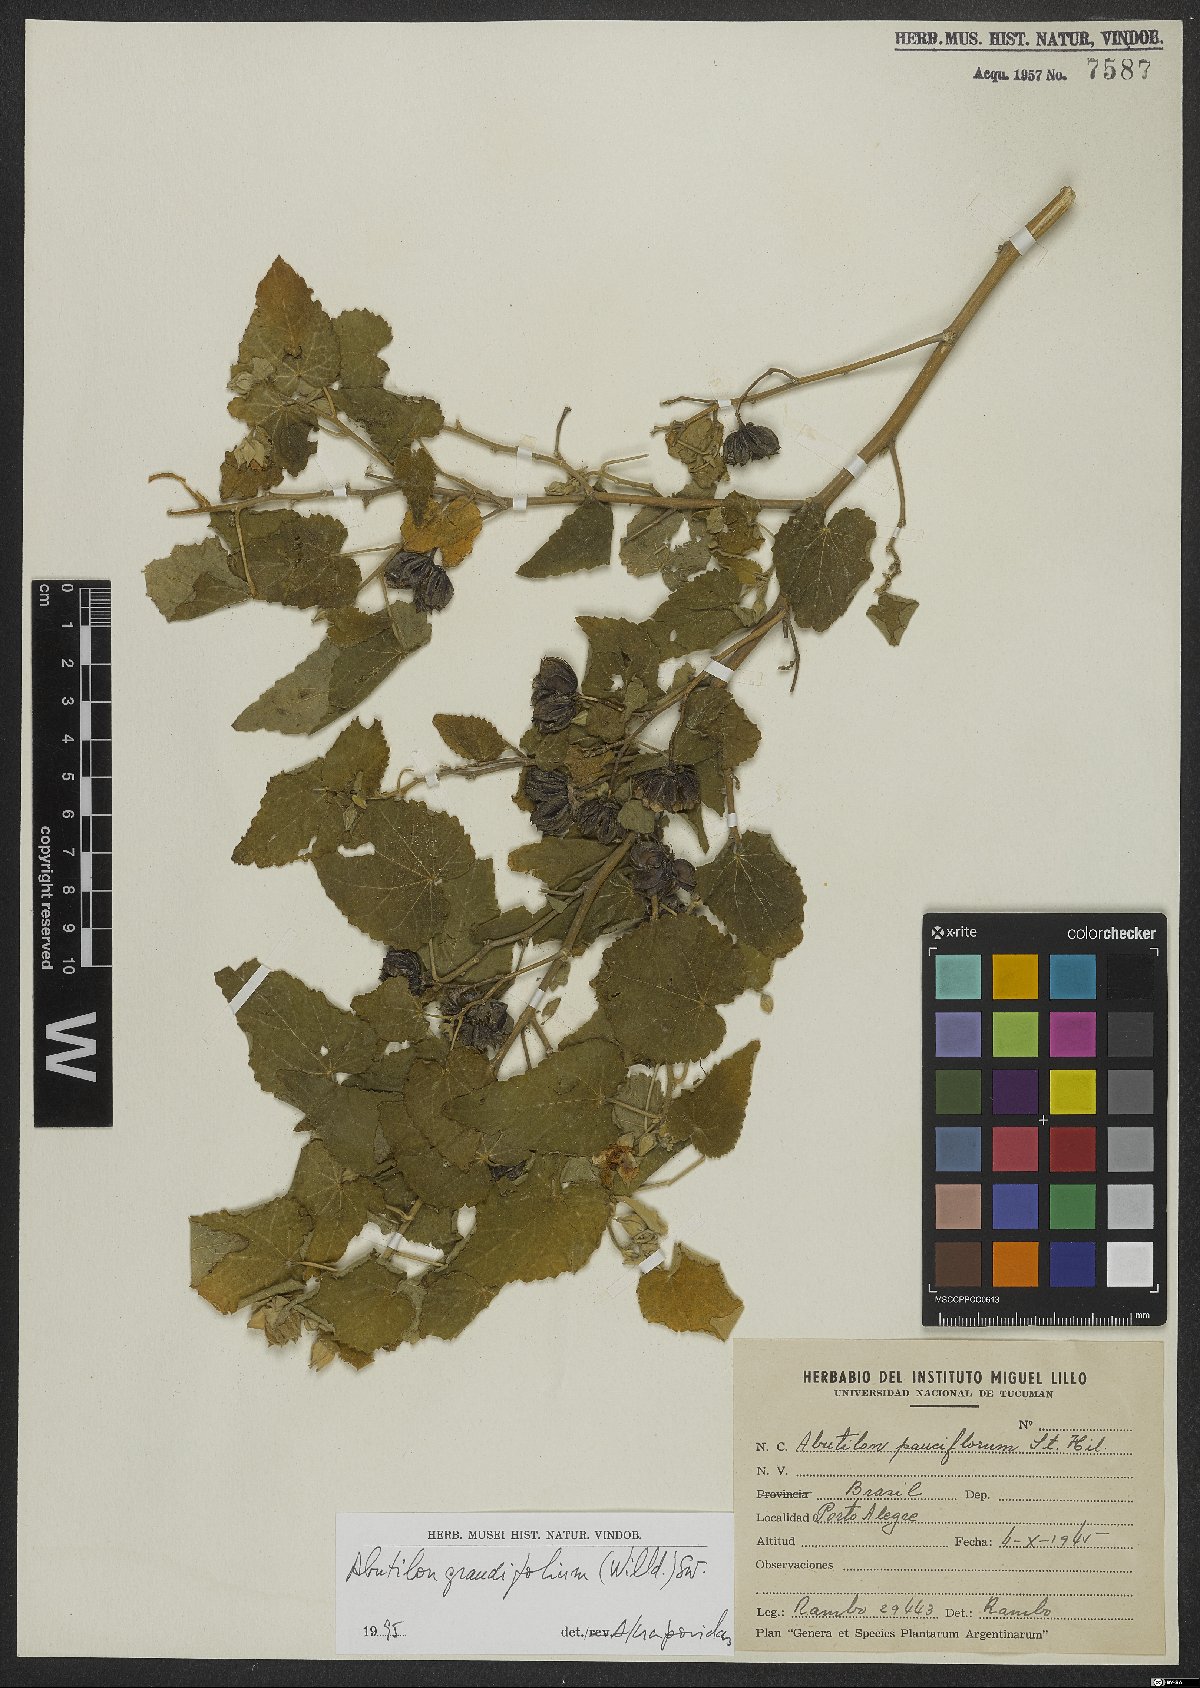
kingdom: Plantae
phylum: Tracheophyta
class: Magnoliopsida
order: Malvales
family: Malvaceae
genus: Abutilon
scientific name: Abutilon grandifolium
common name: Hairy abutilon
